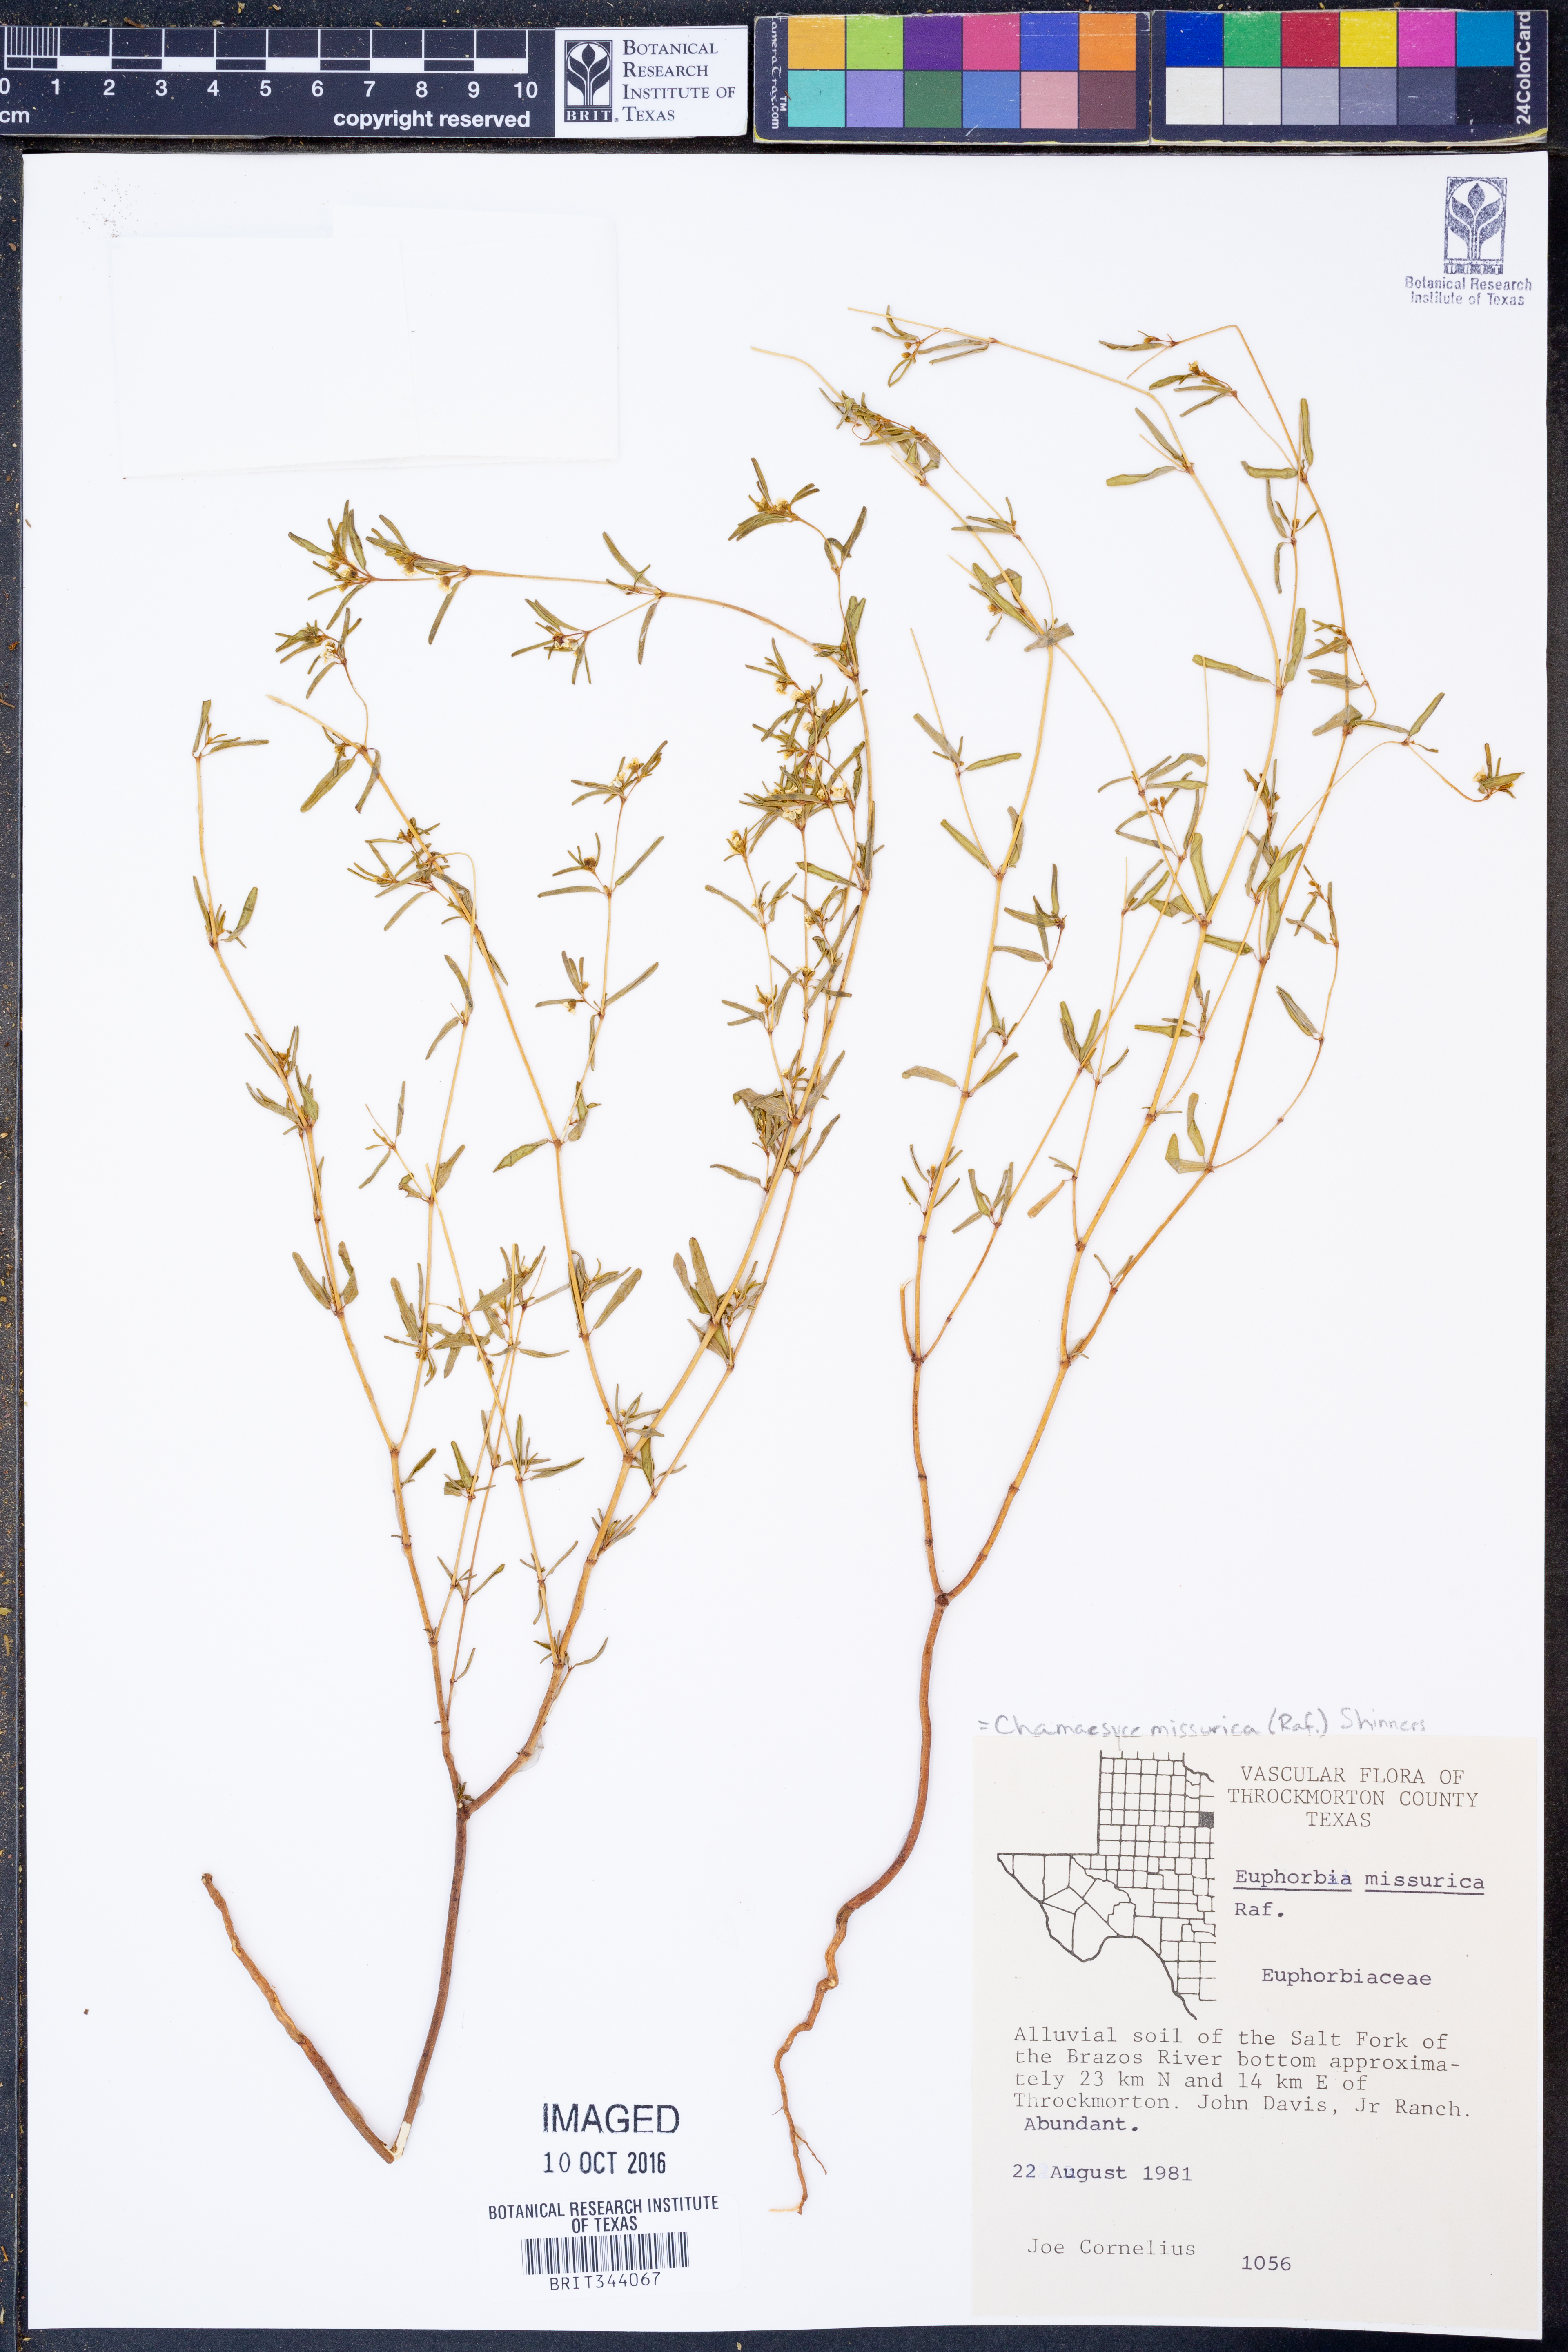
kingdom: Plantae
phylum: Tracheophyta
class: Magnoliopsida
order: Malpighiales
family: Euphorbiaceae
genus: Euphorbia
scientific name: Euphorbia missurica
